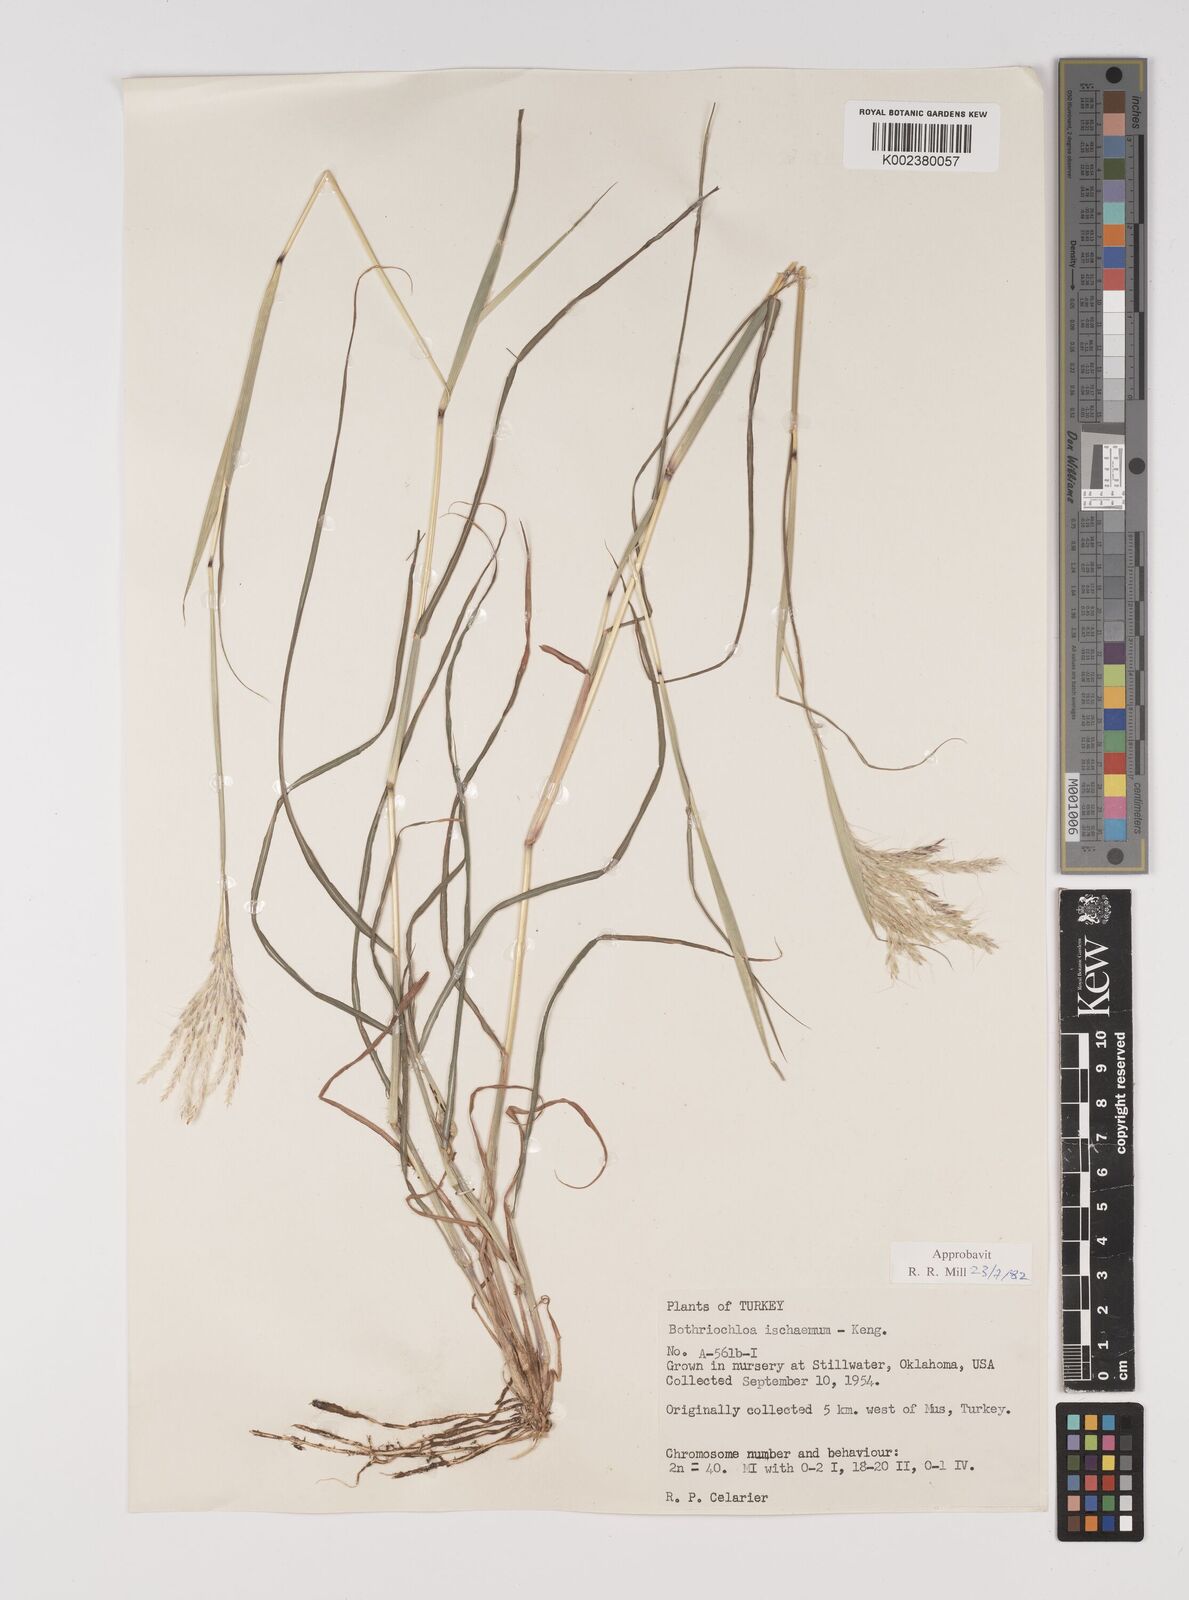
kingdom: Plantae
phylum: Tracheophyta
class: Liliopsida
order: Poales
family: Poaceae
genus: Bothriochloa
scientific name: Bothriochloa ischaemum
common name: Yellow bluestem
